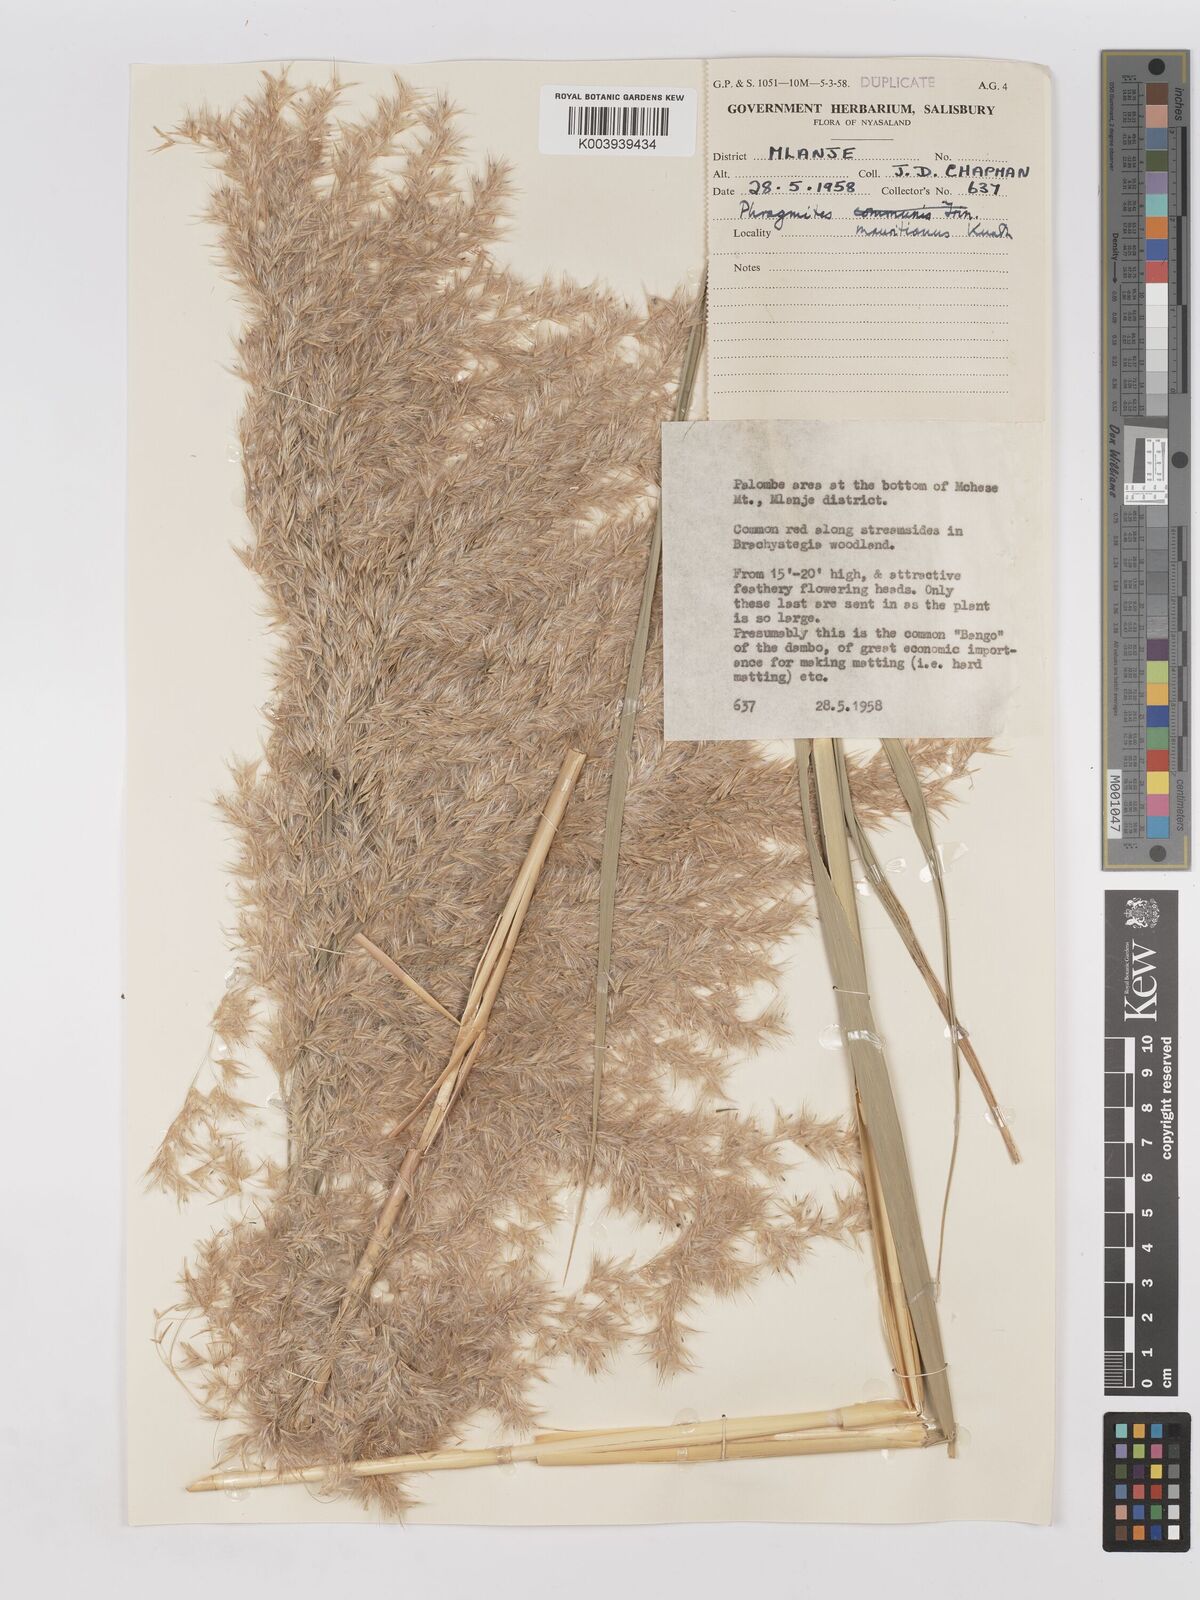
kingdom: Plantae
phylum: Tracheophyta
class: Liliopsida
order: Poales
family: Poaceae
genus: Phragmites
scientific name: Phragmites mauritianus
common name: Reed grass
